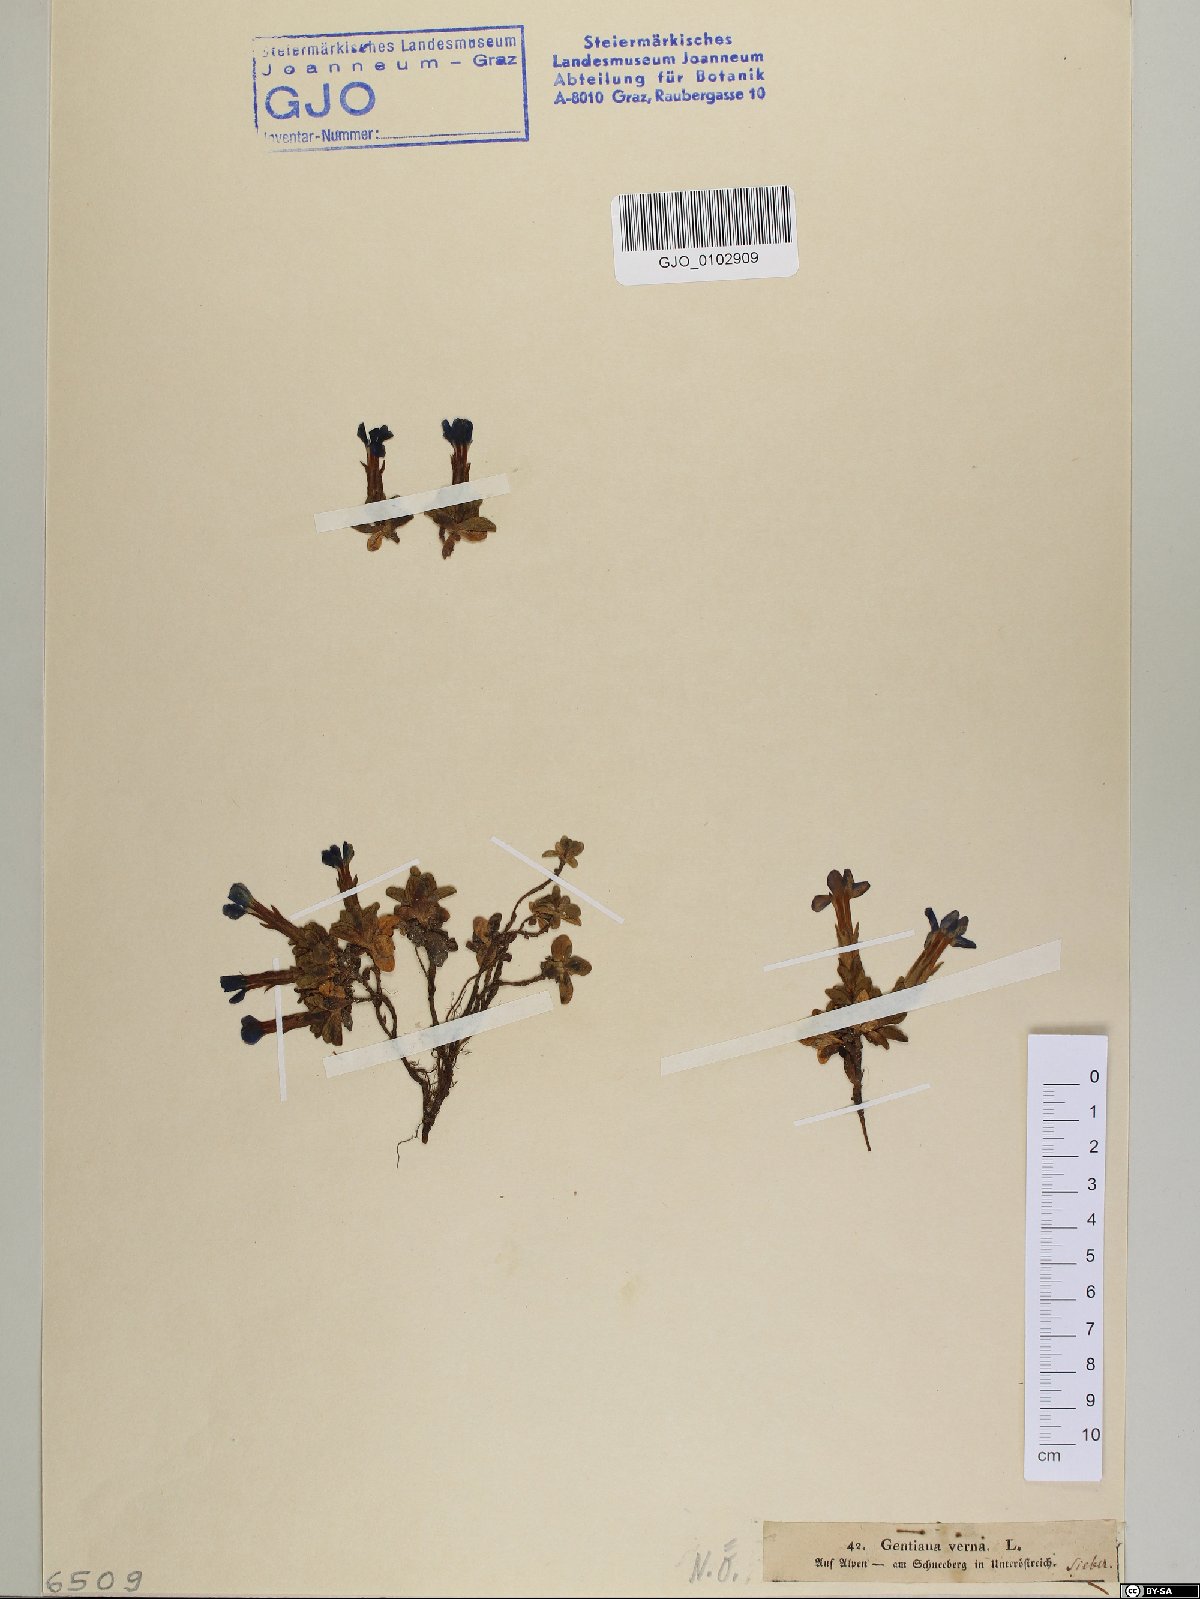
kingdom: Plantae
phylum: Tracheophyta
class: Magnoliopsida
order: Gentianales
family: Gentianaceae
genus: Gentiana
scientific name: Gentiana verna
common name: Spring gentian
